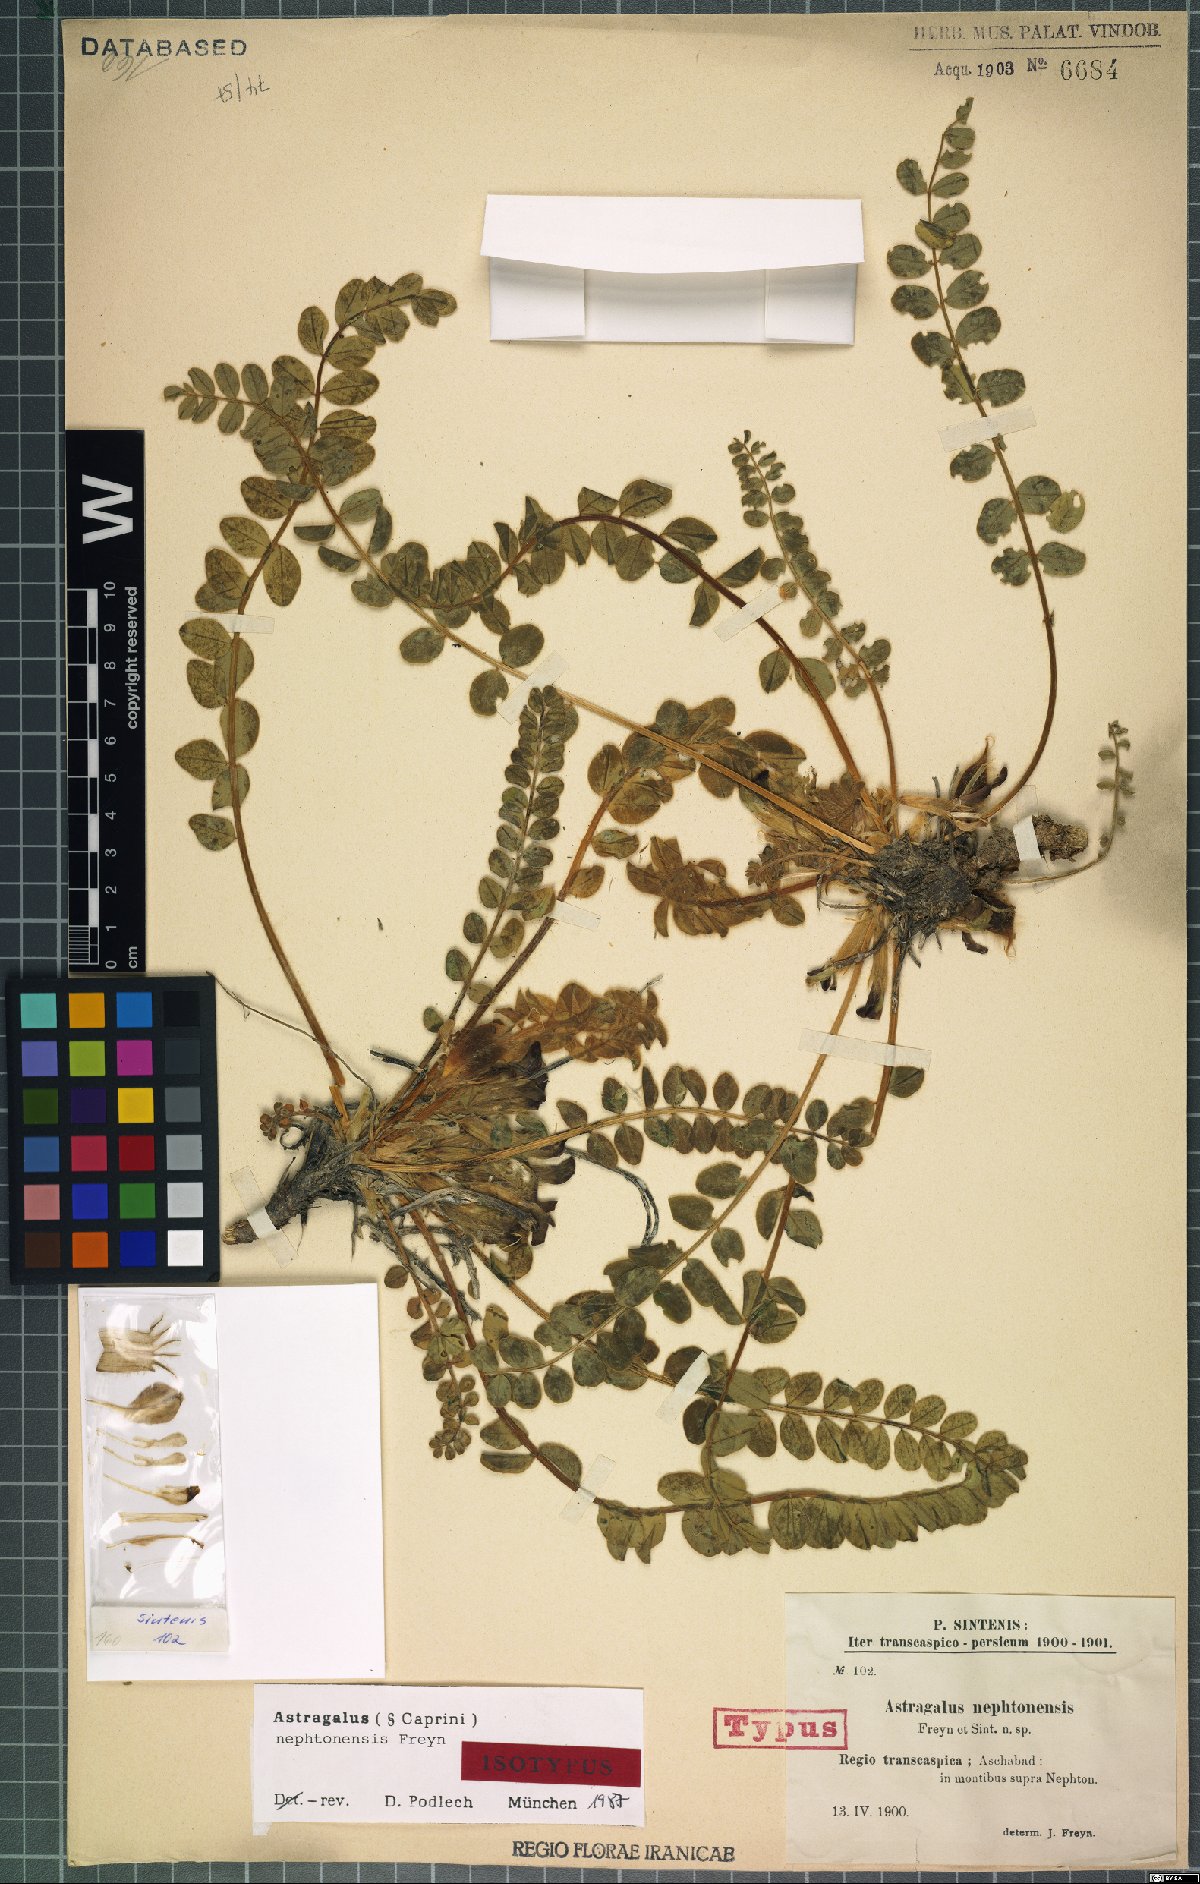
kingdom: Plantae
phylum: Tracheophyta
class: Magnoliopsida
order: Fabales
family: Fabaceae
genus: Astragalus
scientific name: Astragalus nephtonensis
